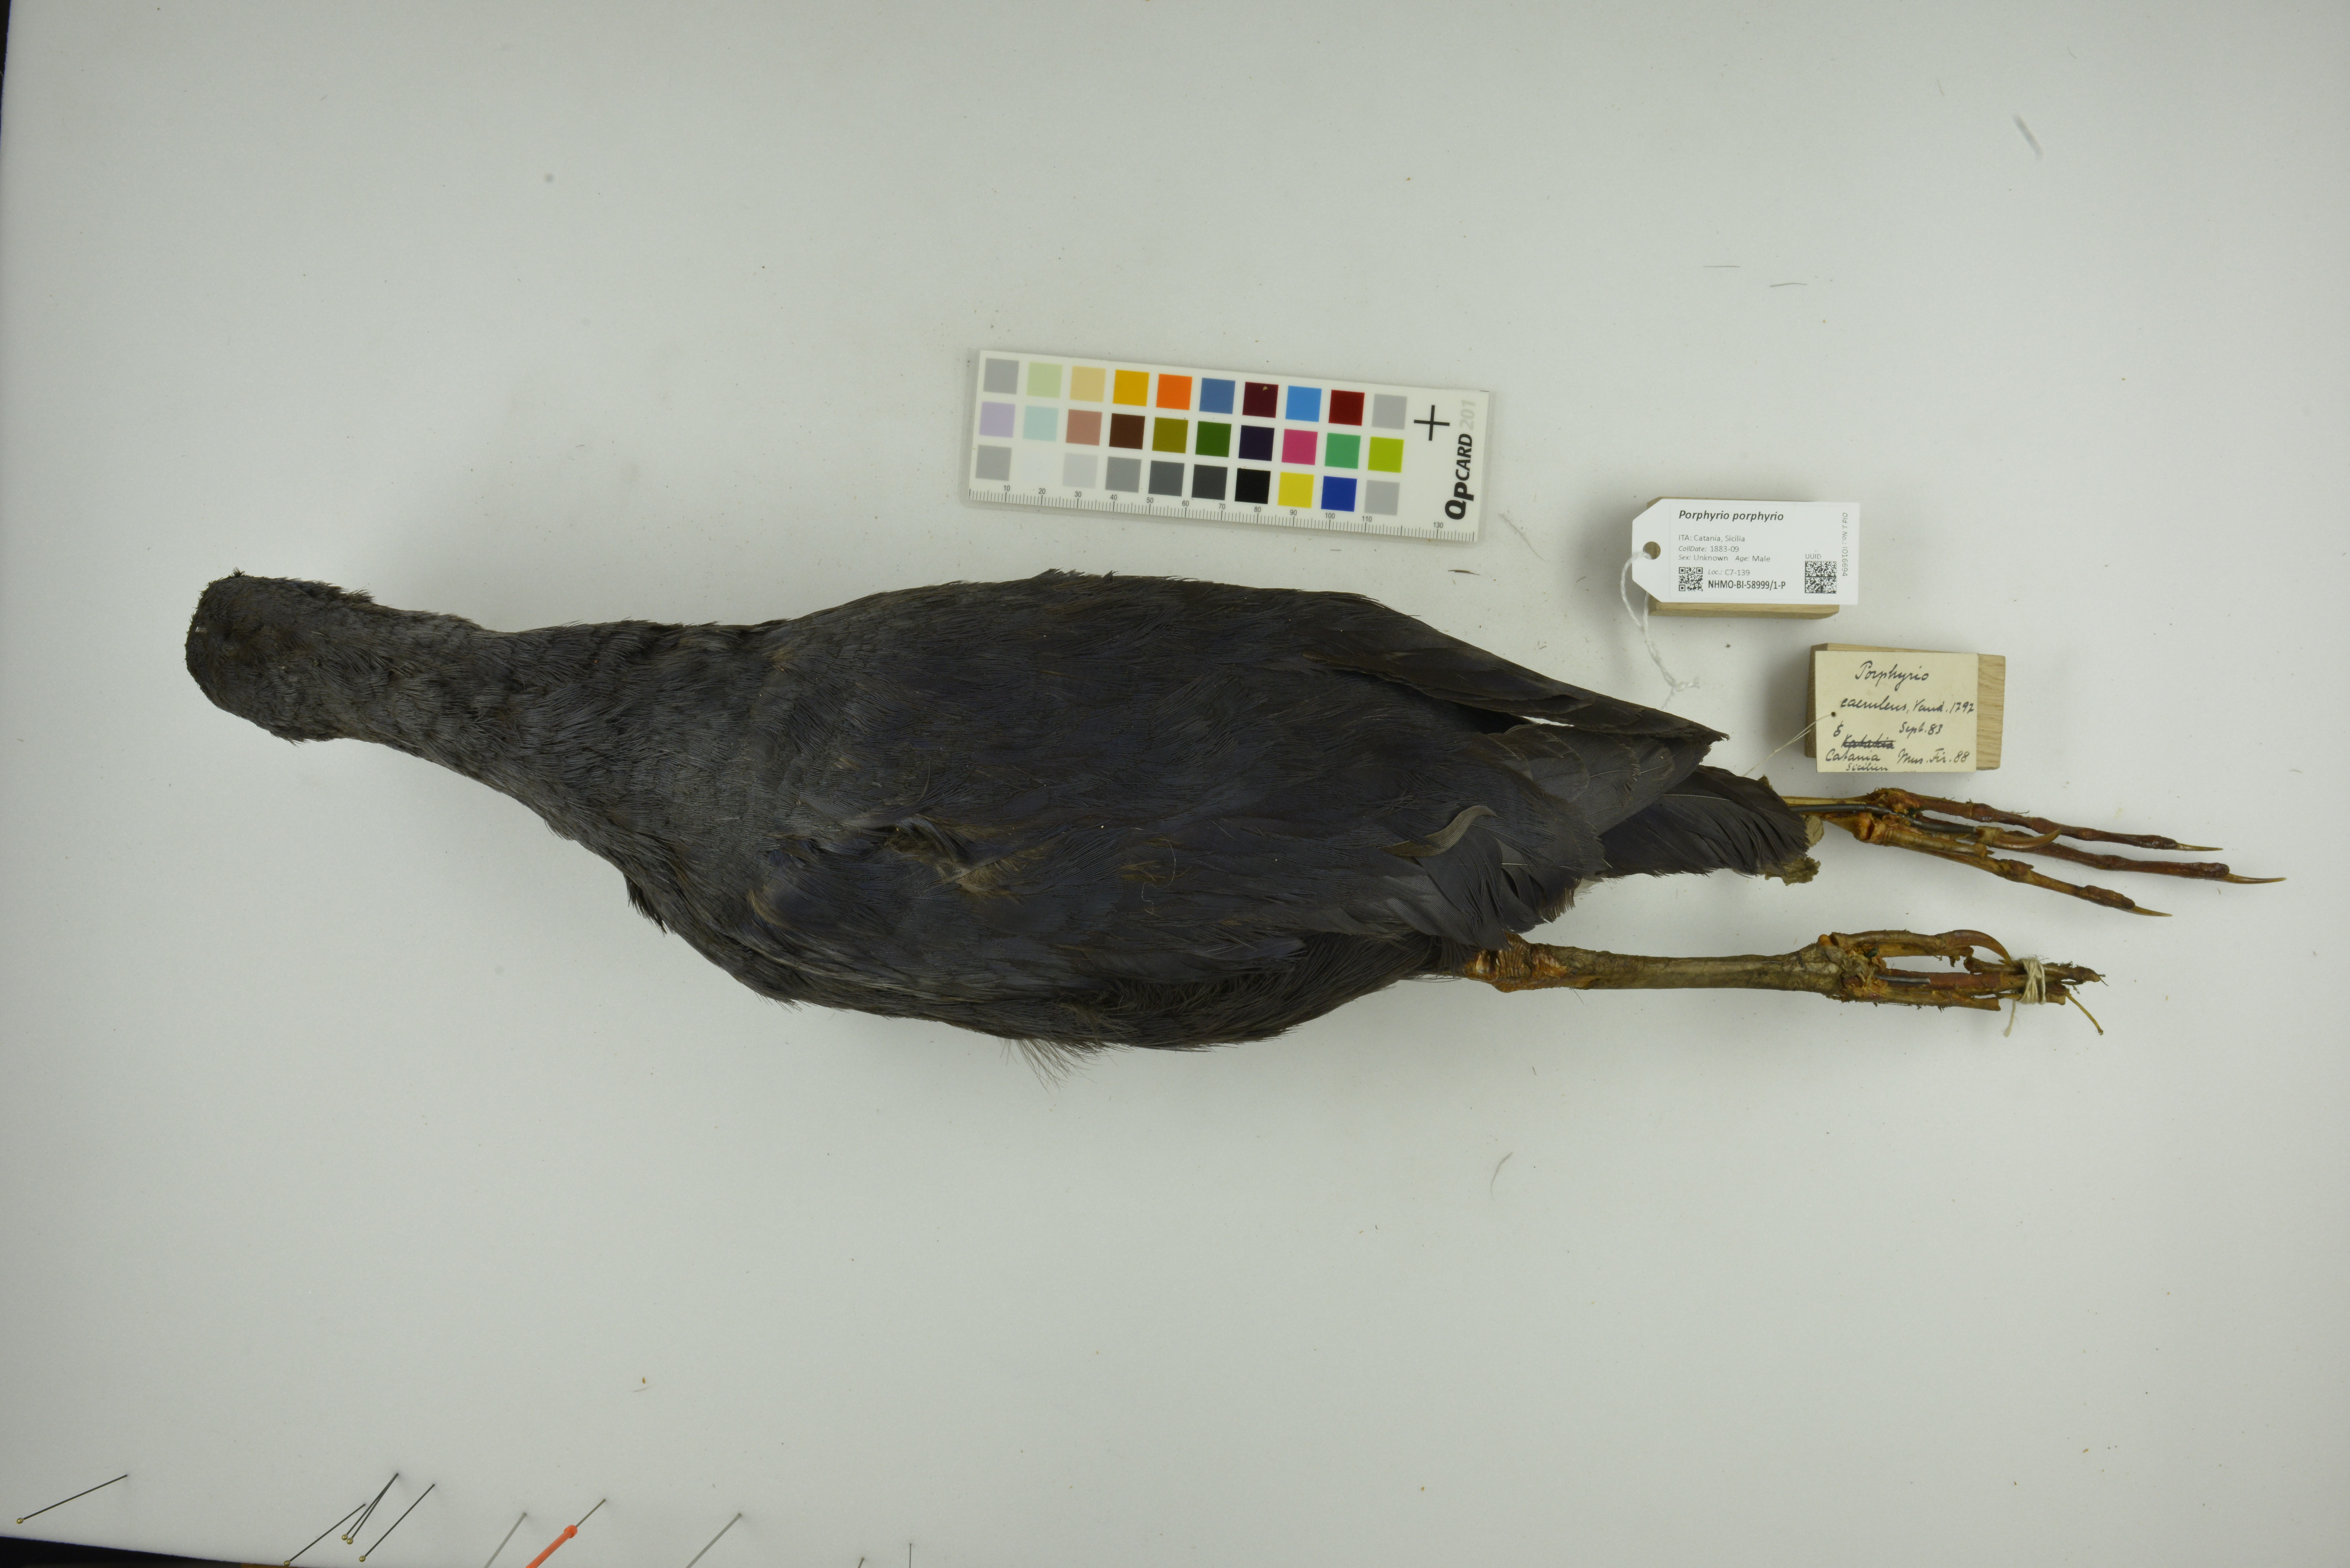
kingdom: Animalia
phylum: Chordata
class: Aves
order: Gruiformes
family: Rallidae
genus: Porphyrio
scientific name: Porphyrio porphyrio
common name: Purple swamphen
